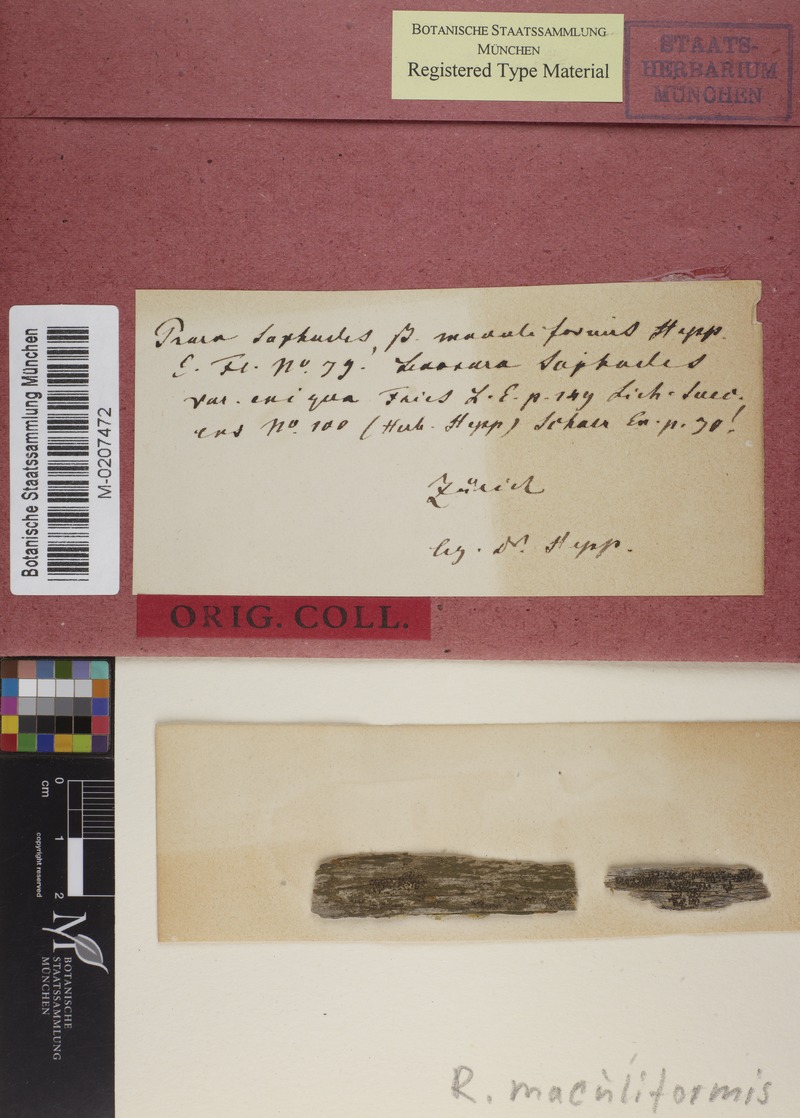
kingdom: Fungi
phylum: Ascomycota
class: Lecanoromycetes
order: Caliciales
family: Physciaceae
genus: Rinodina
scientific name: Rinodina archaea
